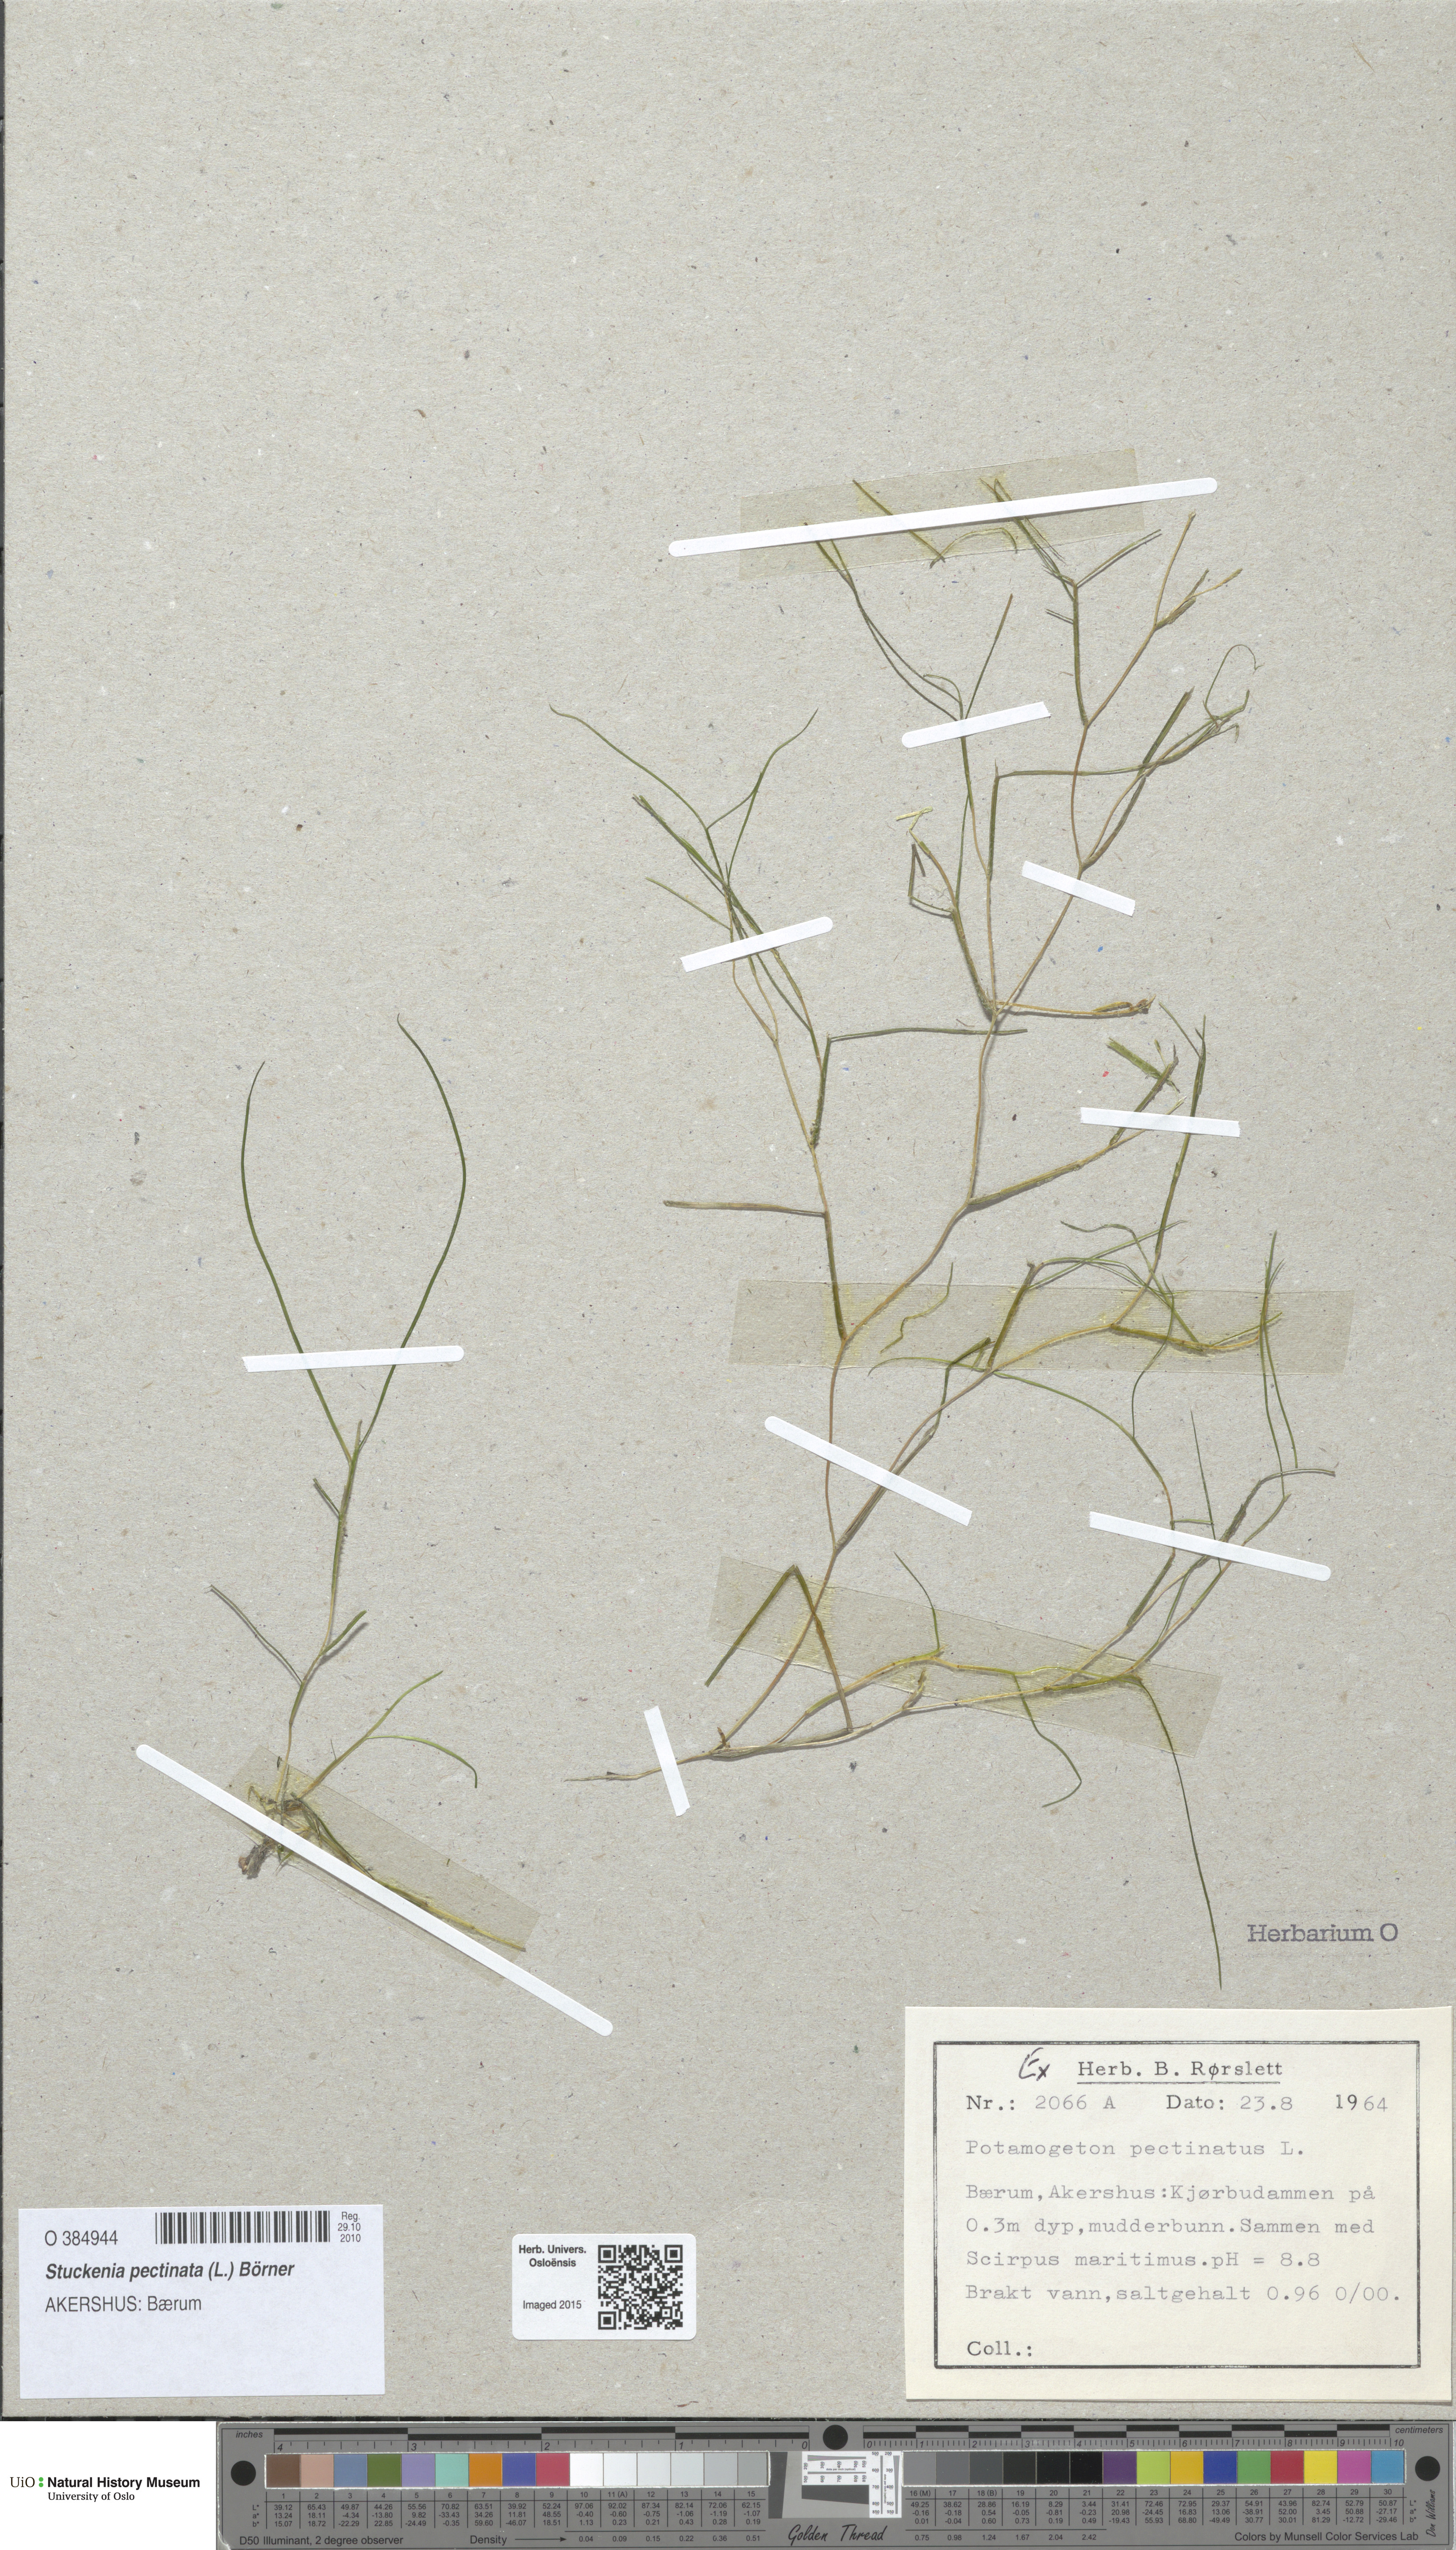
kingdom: Plantae
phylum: Tracheophyta
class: Liliopsida
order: Alismatales
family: Potamogetonaceae
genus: Stuckenia
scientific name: Stuckenia pectinata
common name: Sago pondweed
